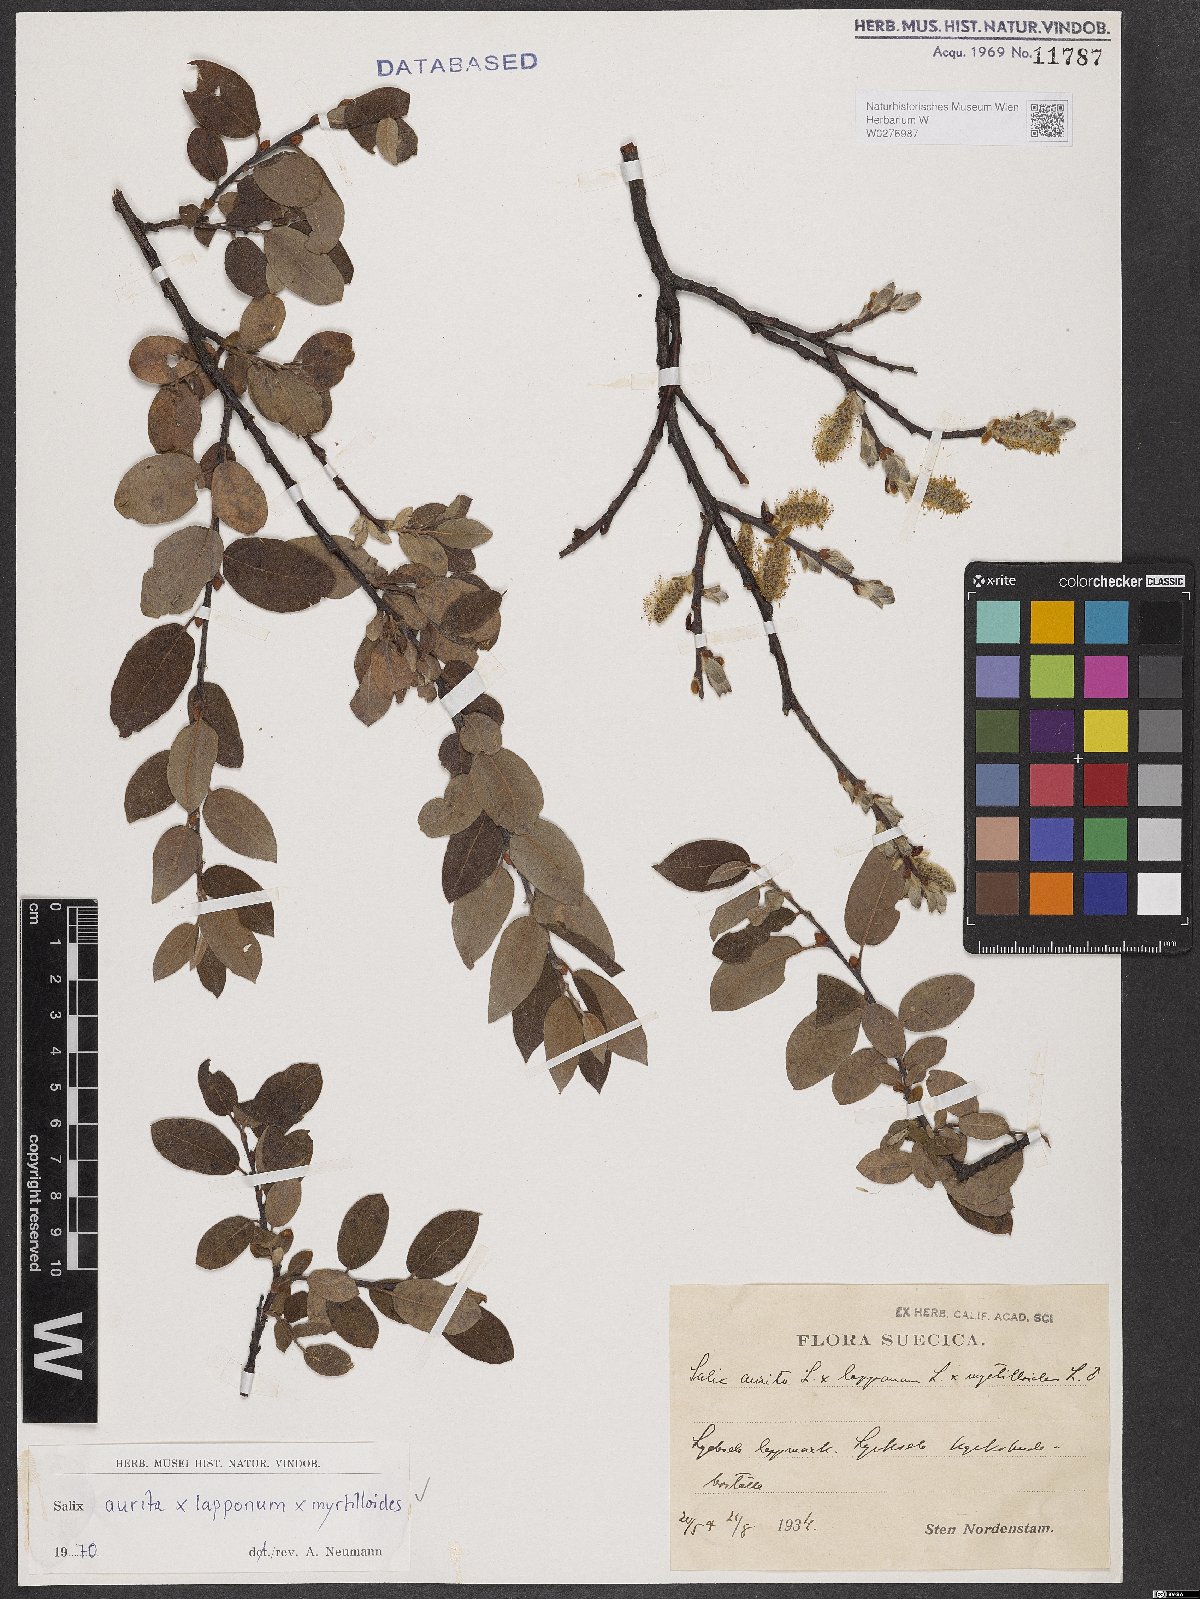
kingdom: Plantae
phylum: Tracheophyta
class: Magnoliopsida
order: Malpighiales
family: Salicaceae
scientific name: Salicaceae
